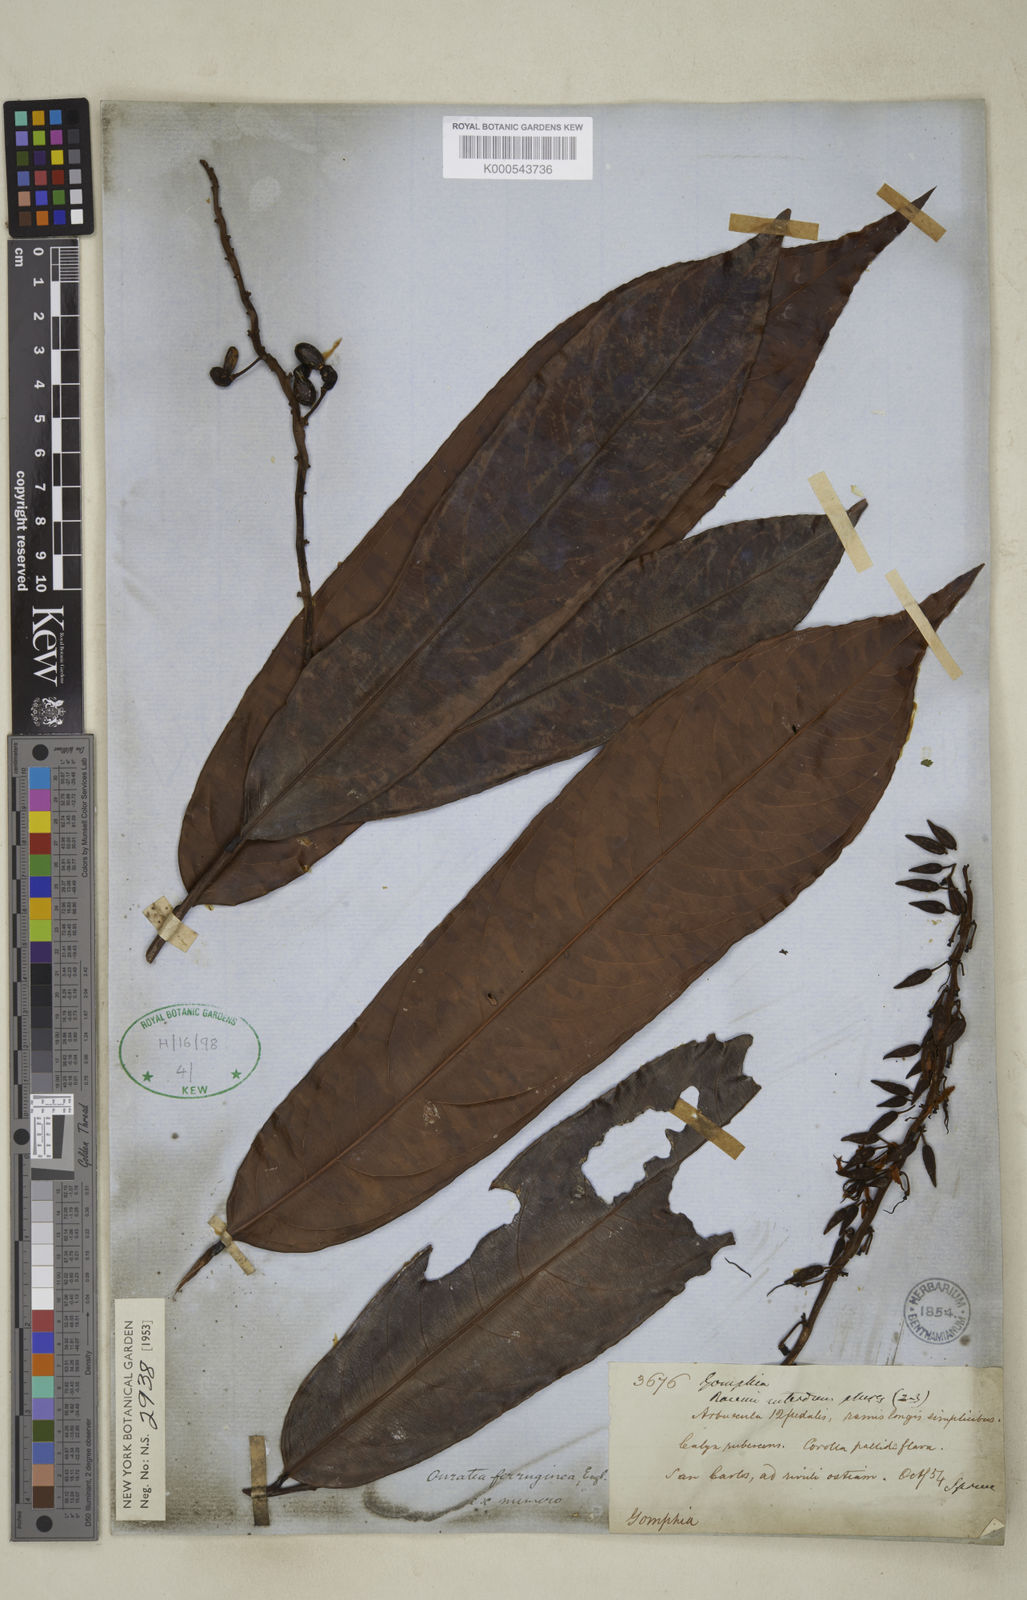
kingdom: Plantae
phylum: Tracheophyta
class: Magnoliopsida
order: Malpighiales
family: Ochnaceae
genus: Ouratea
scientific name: Ouratea ferruginea
